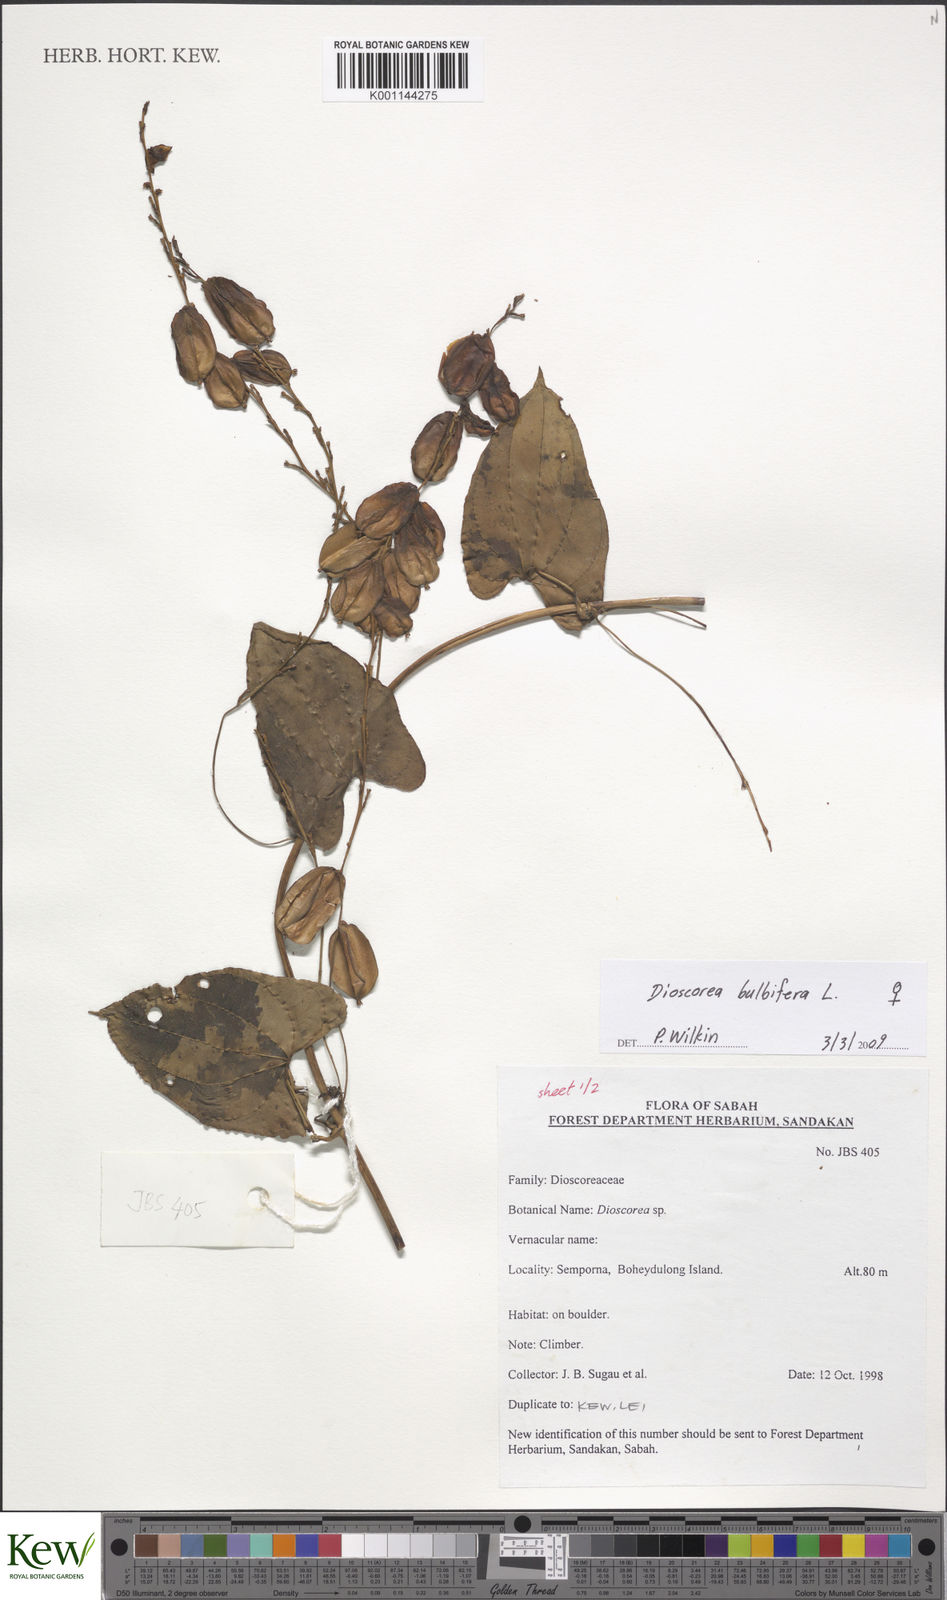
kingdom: Plantae
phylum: Tracheophyta
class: Liliopsida
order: Dioscoreales
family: Dioscoreaceae
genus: Dioscorea
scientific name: Dioscorea bulbifera
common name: Air yam
